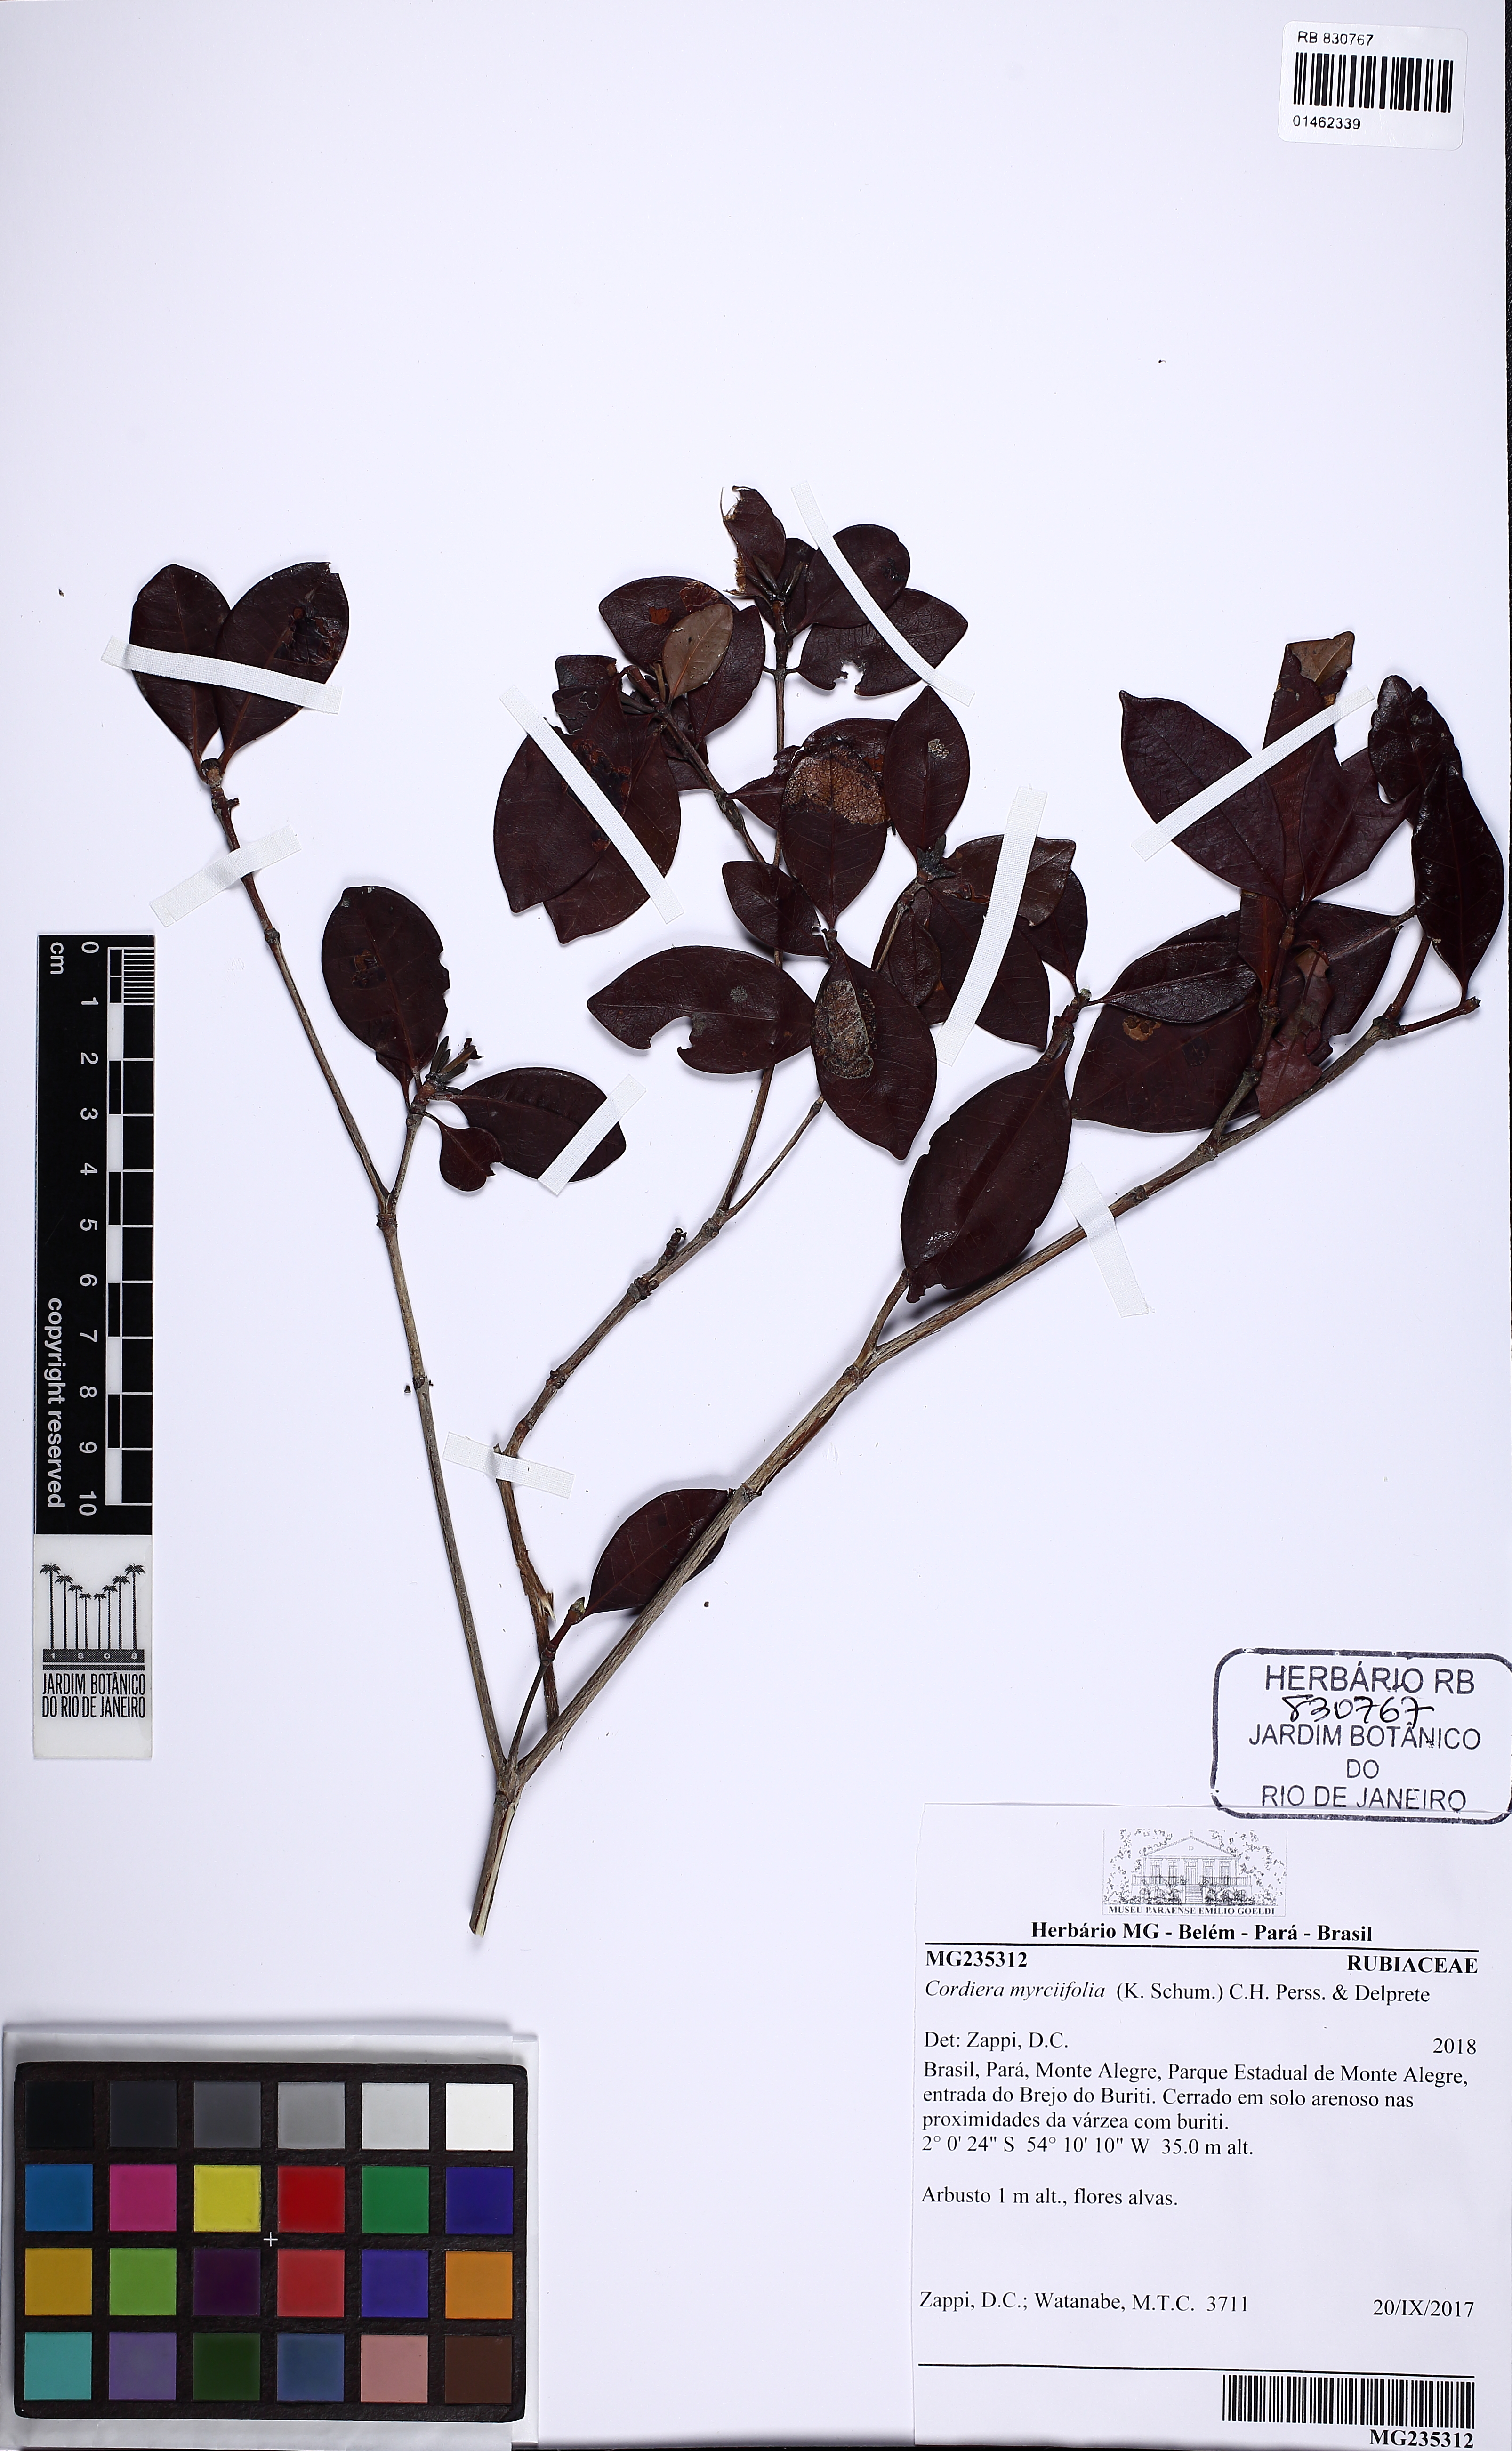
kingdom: Plantae
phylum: Tracheophyta
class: Magnoliopsida
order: Gentianales
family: Rubiaceae
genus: Cordiera
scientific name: Cordiera myrciifolia
